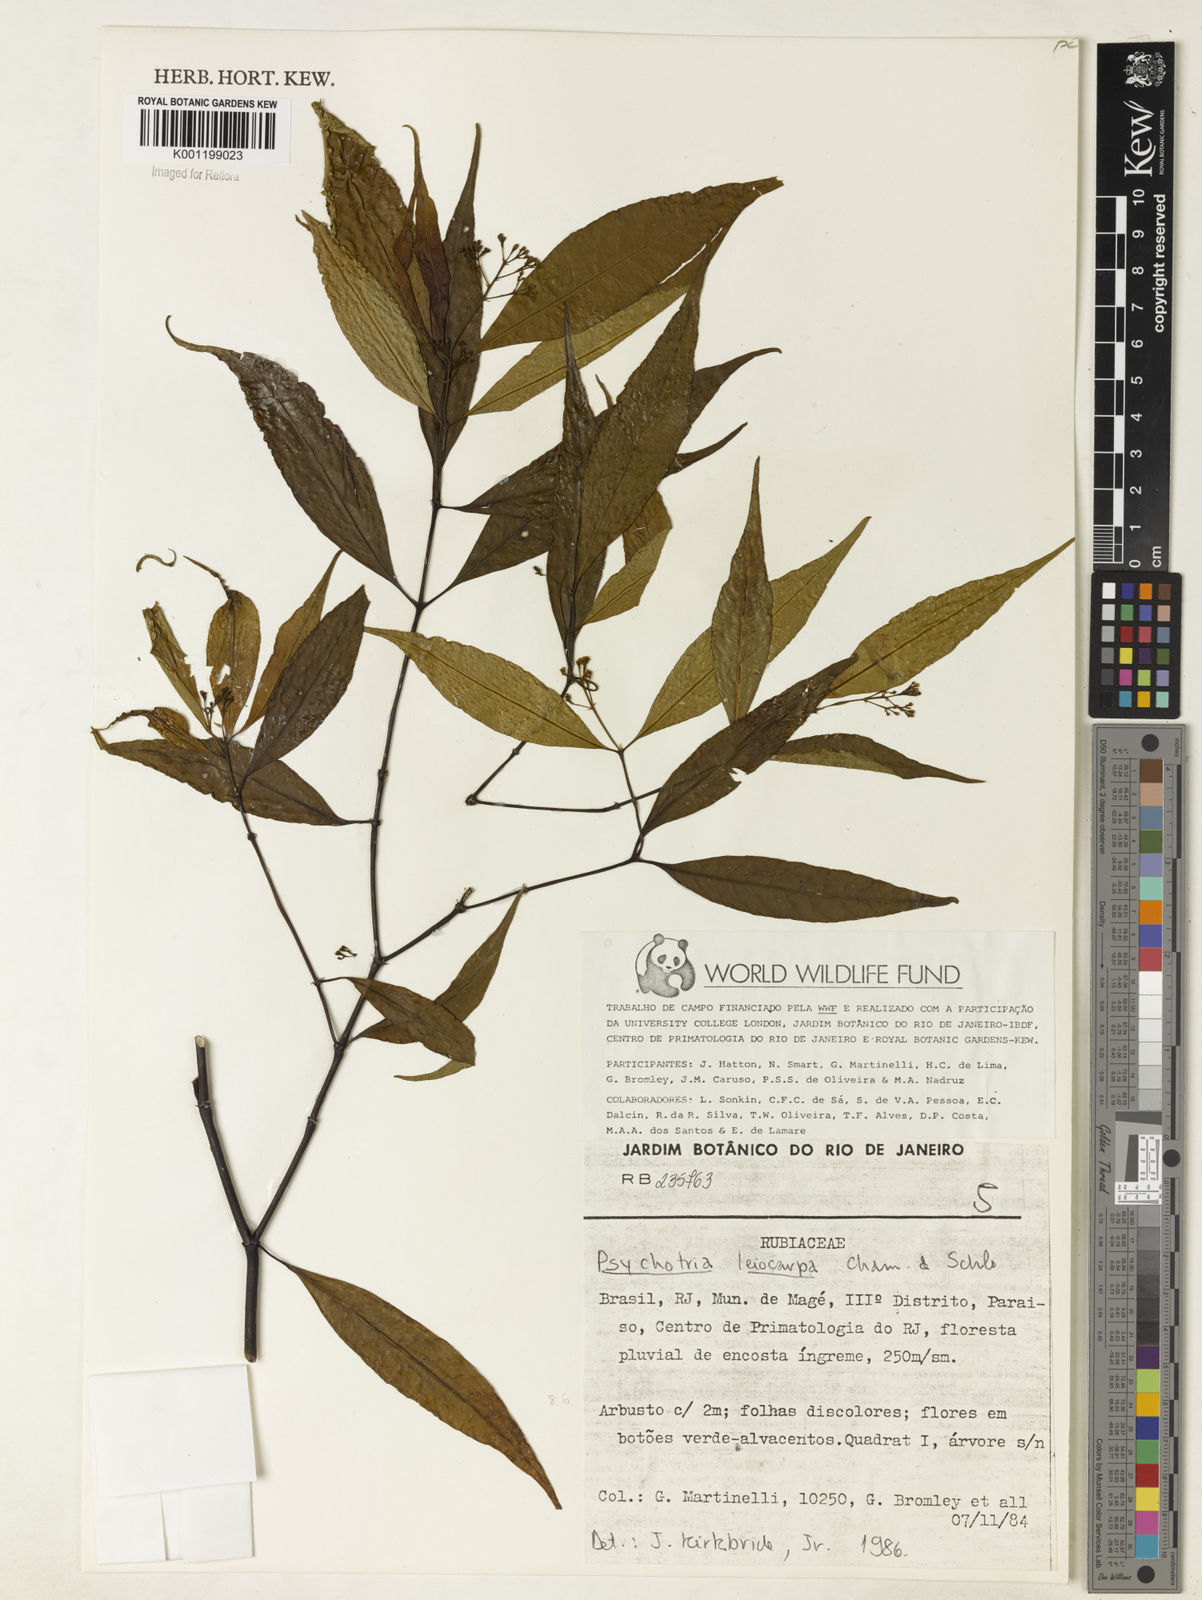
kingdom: Plantae
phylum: Tracheophyta
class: Magnoliopsida
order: Gentianales
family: Rubiaceae
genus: Psychotria
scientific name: Psychotria leiocarpa
